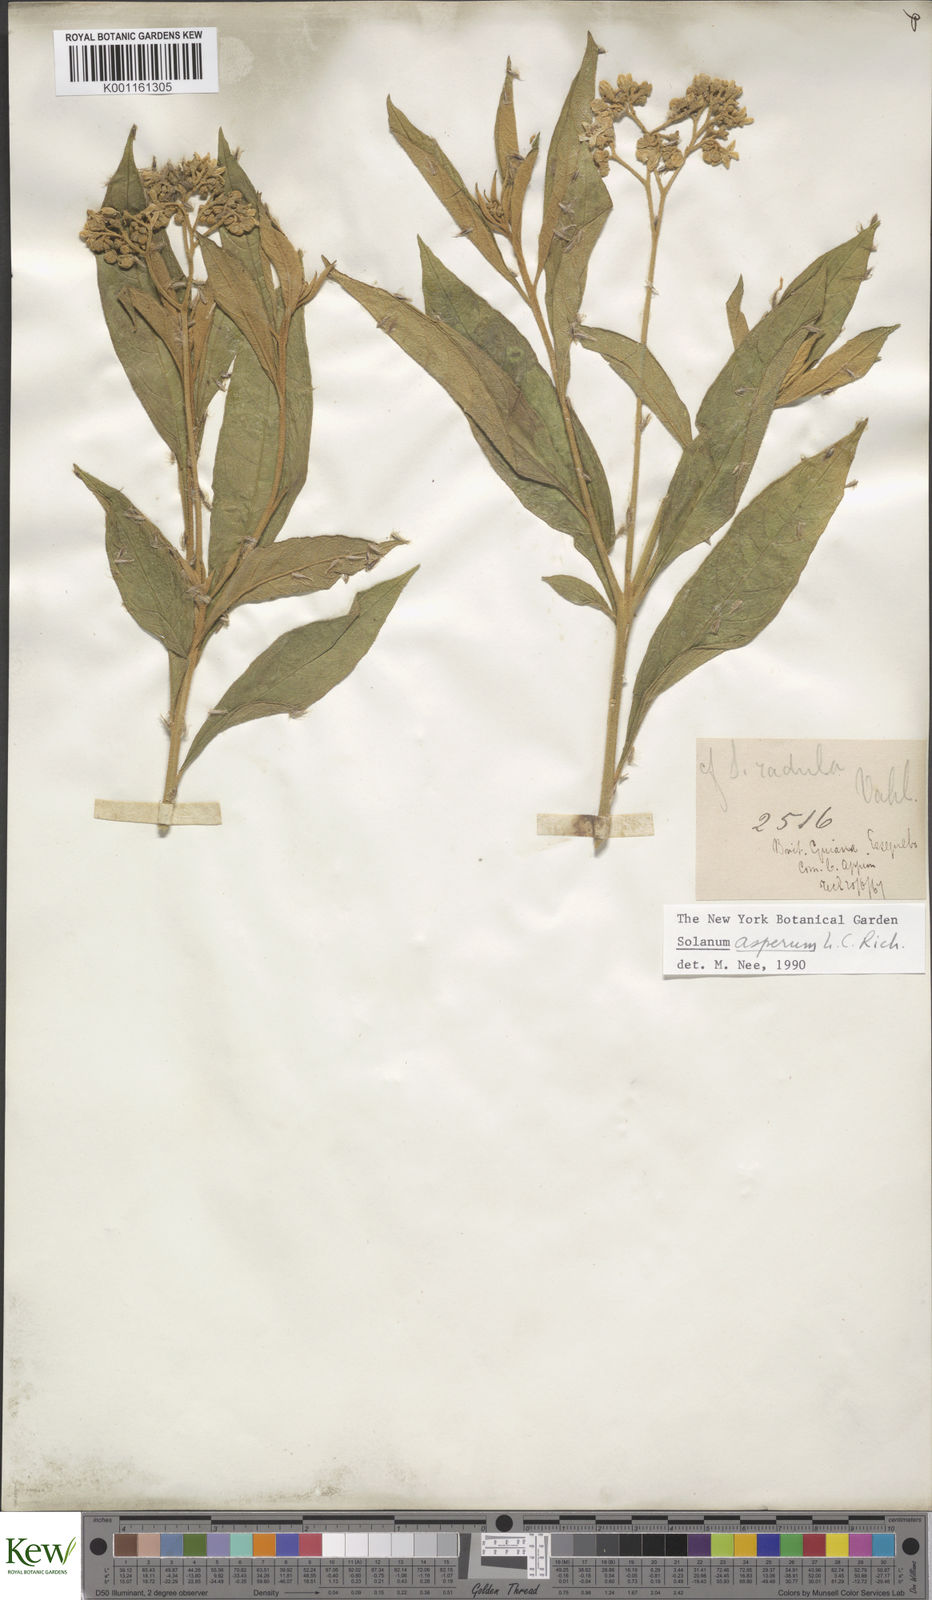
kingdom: Plantae
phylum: Tracheophyta
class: Magnoliopsida
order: Solanales
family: Solanaceae
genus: Solanum
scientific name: Solanum asperum
